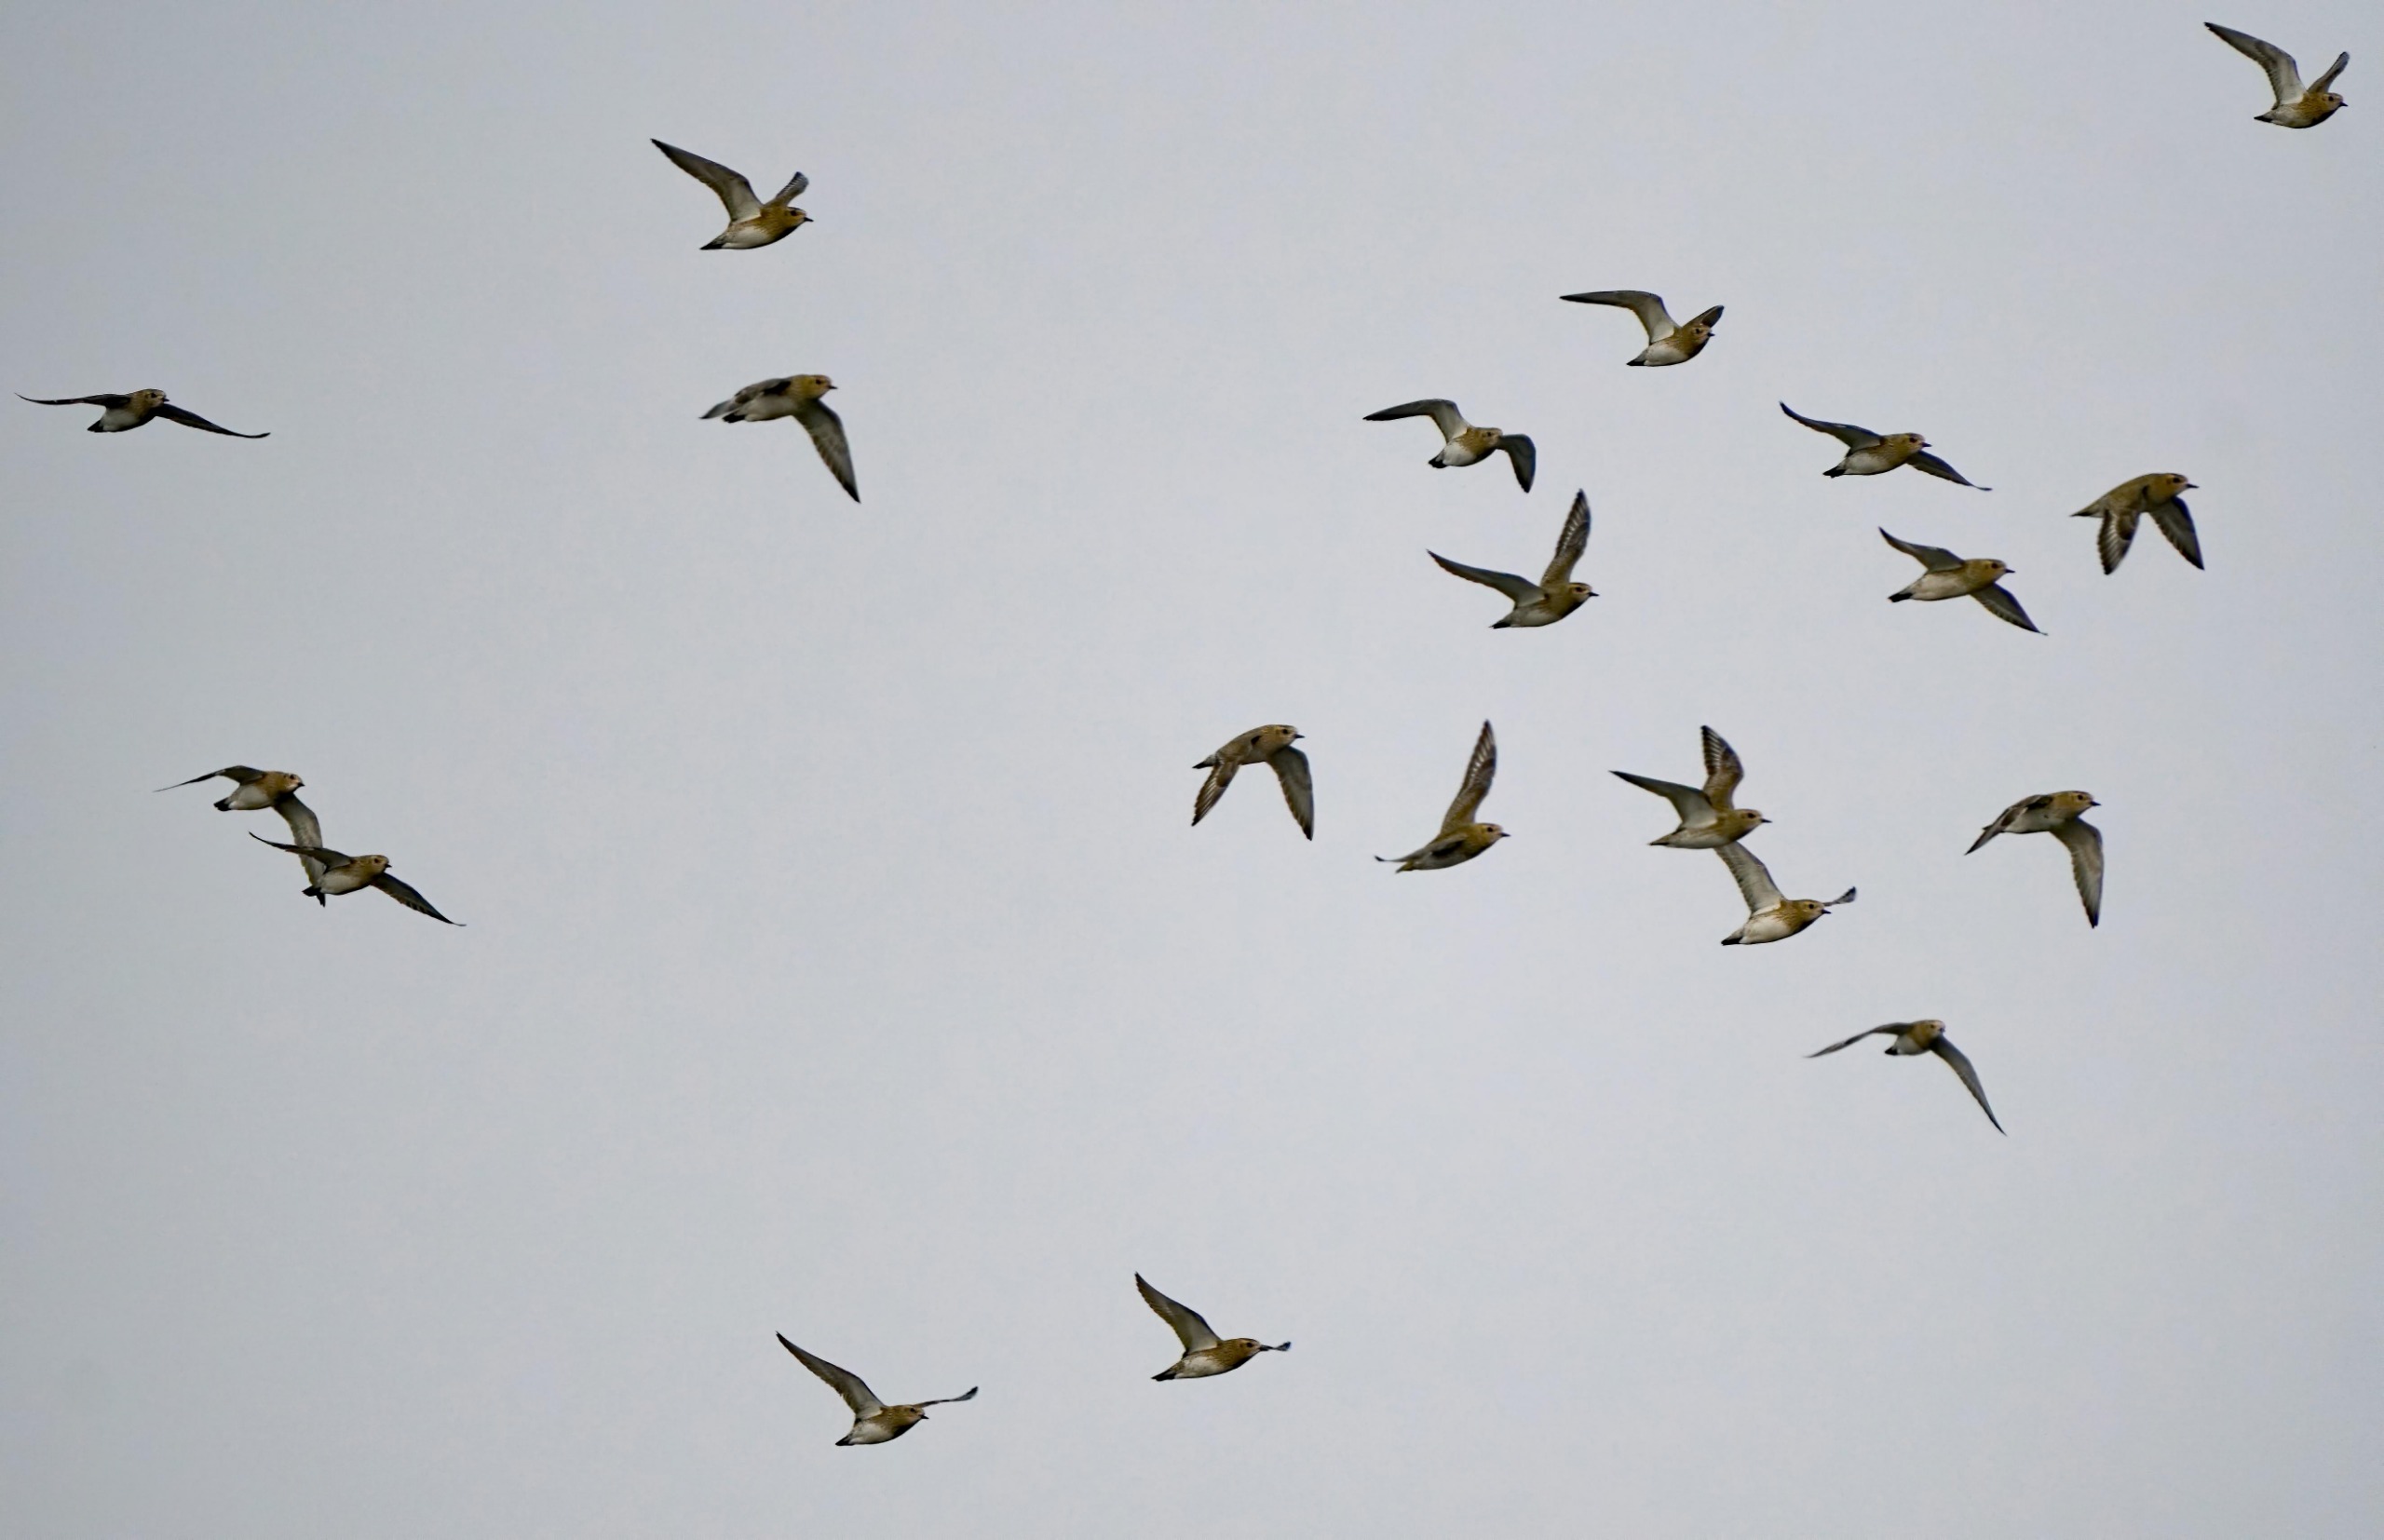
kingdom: Animalia
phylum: Chordata
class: Aves
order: Charadriiformes
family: Charadriidae
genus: Pluvialis
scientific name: Pluvialis apricaria
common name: Hjejle
